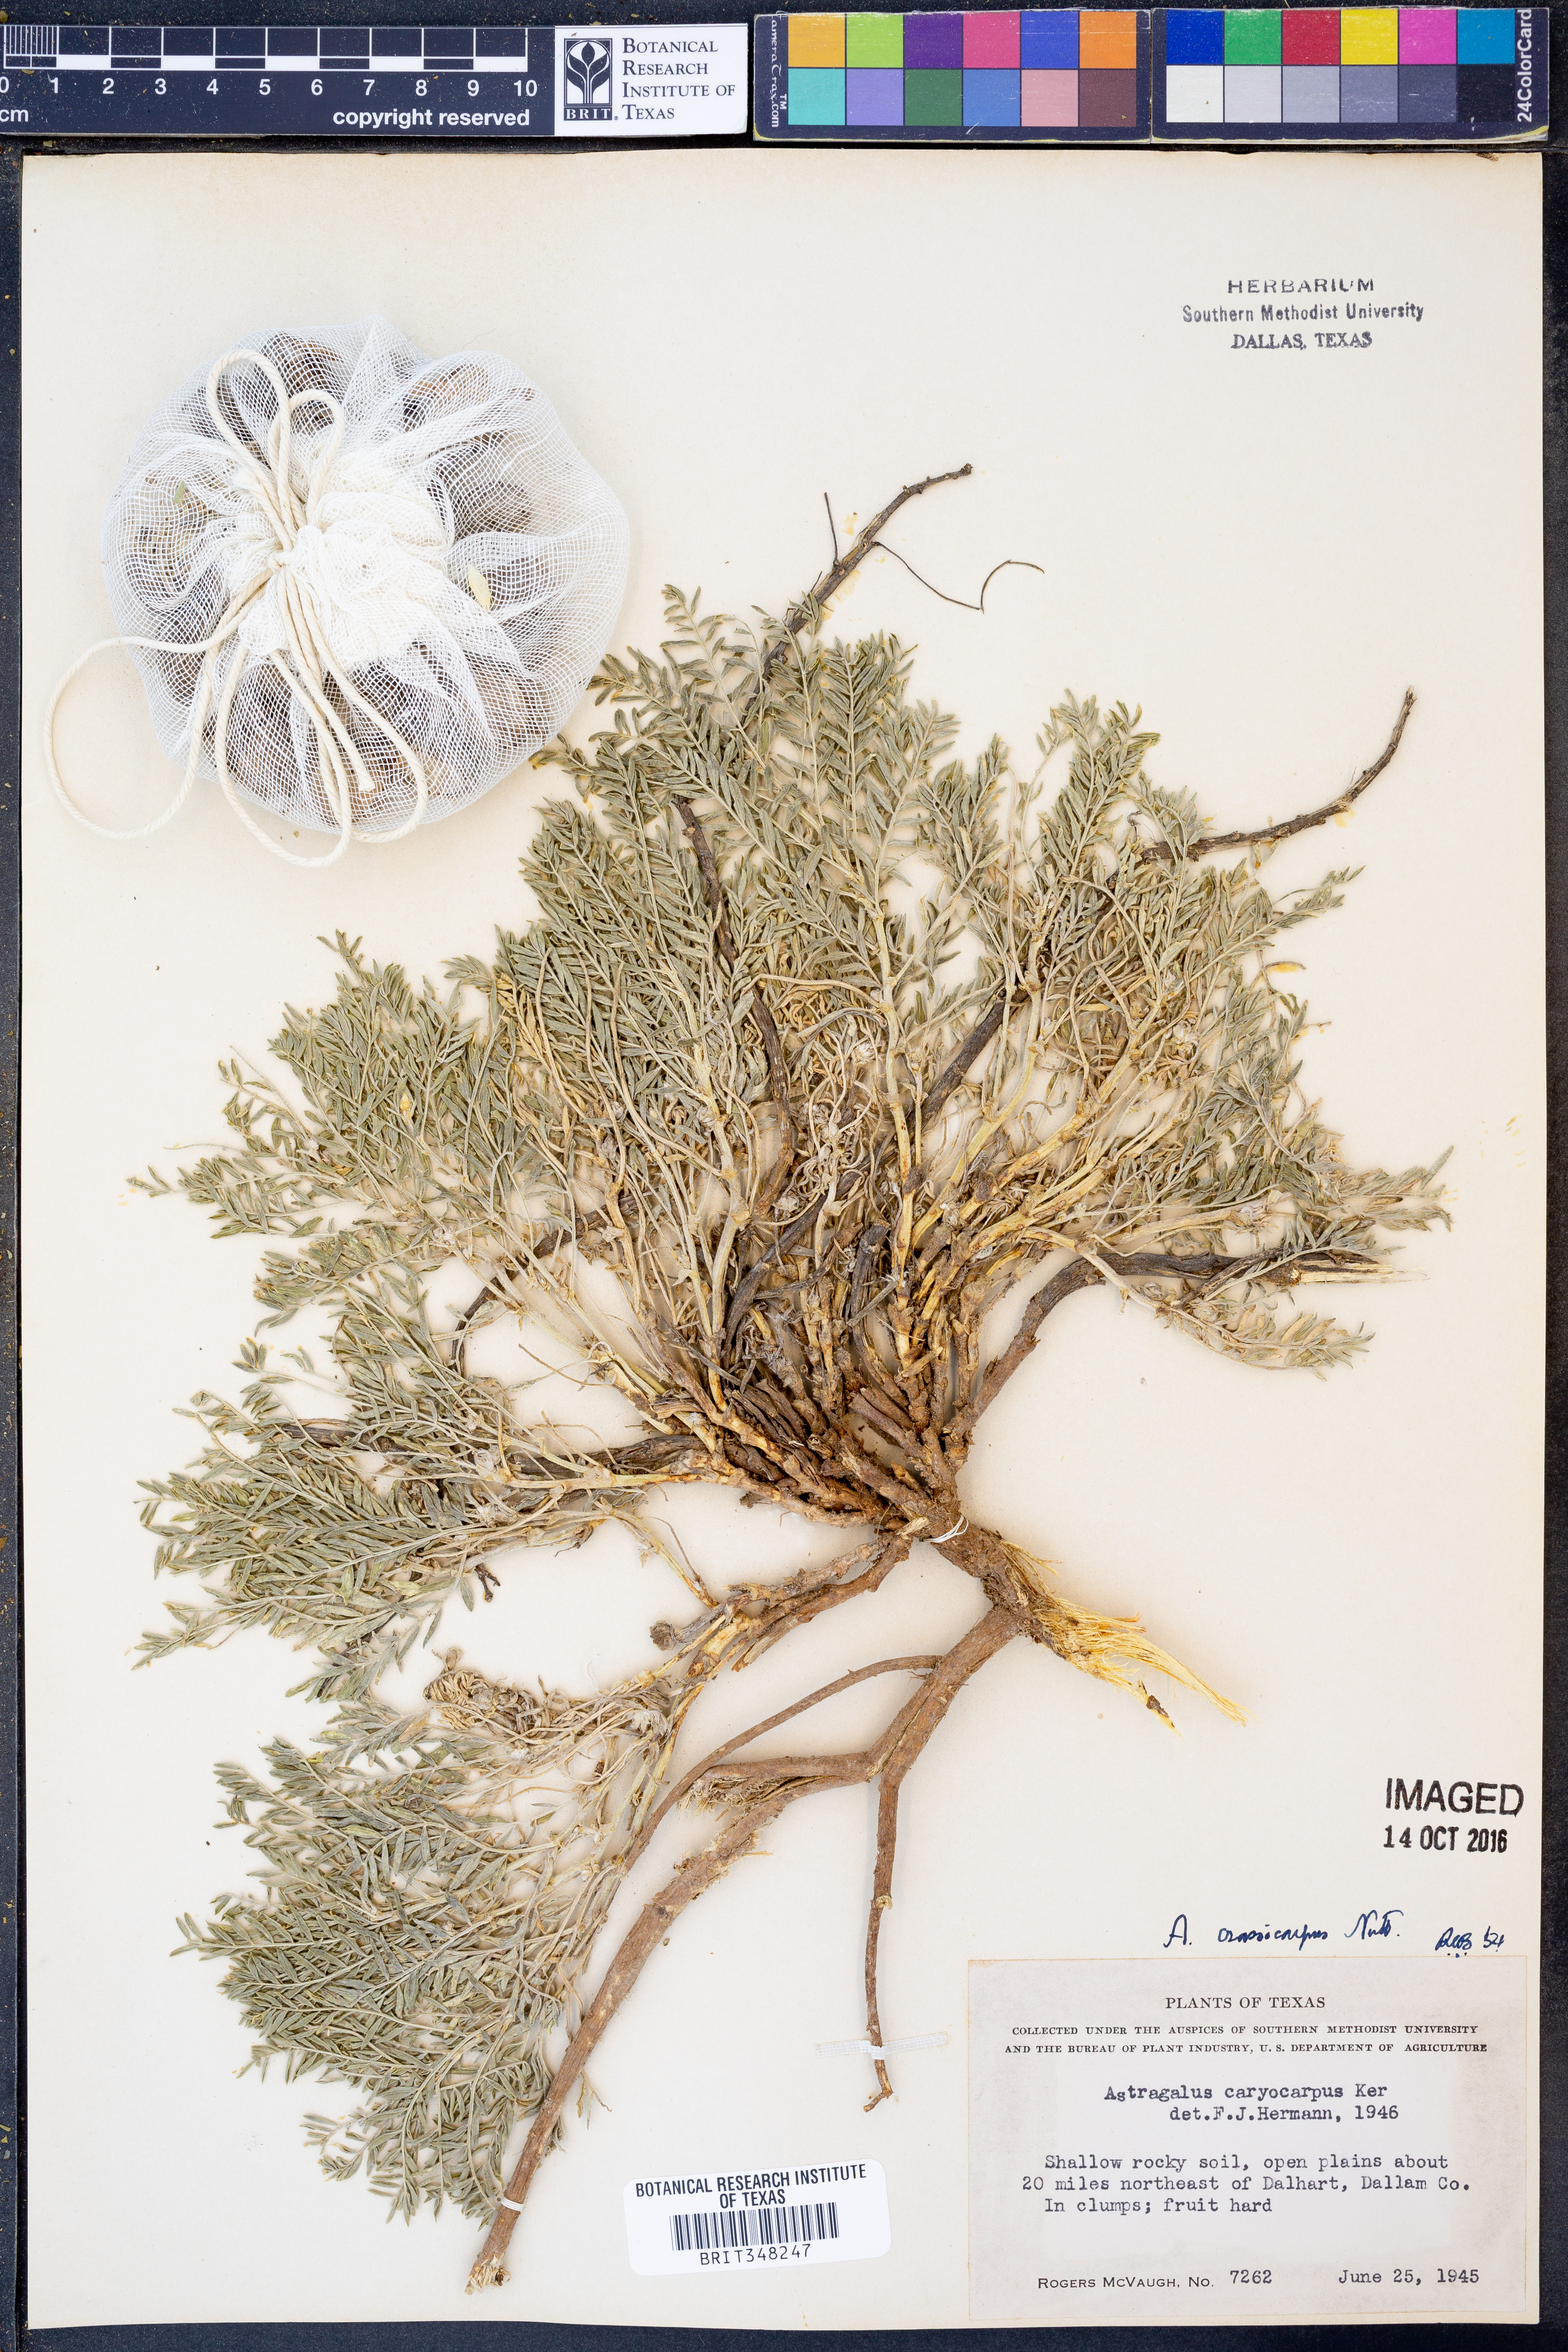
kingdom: Plantae
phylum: Tracheophyta
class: Magnoliopsida
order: Fabales
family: Fabaceae
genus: Astragalus
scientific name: Astragalus crassicarpus
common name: Ground-plum milk-vetch
